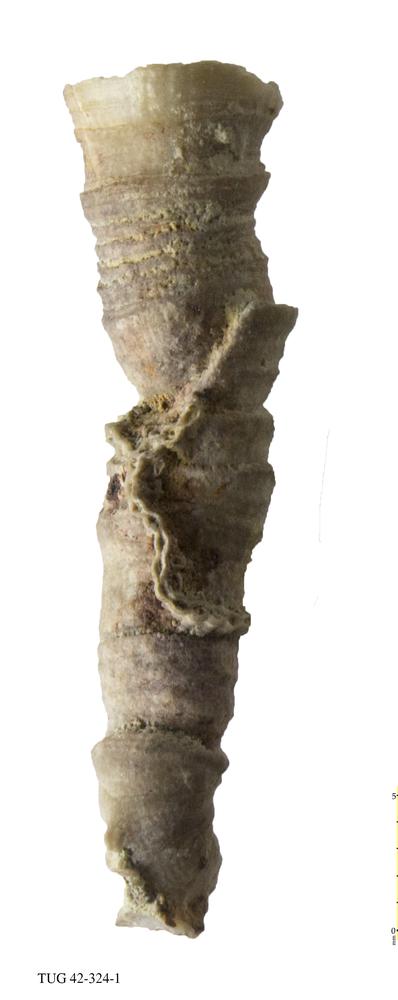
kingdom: Animalia
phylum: Cnidaria
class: Anthozoa
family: Cateniporidae
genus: Catenipora
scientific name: Catenipora
